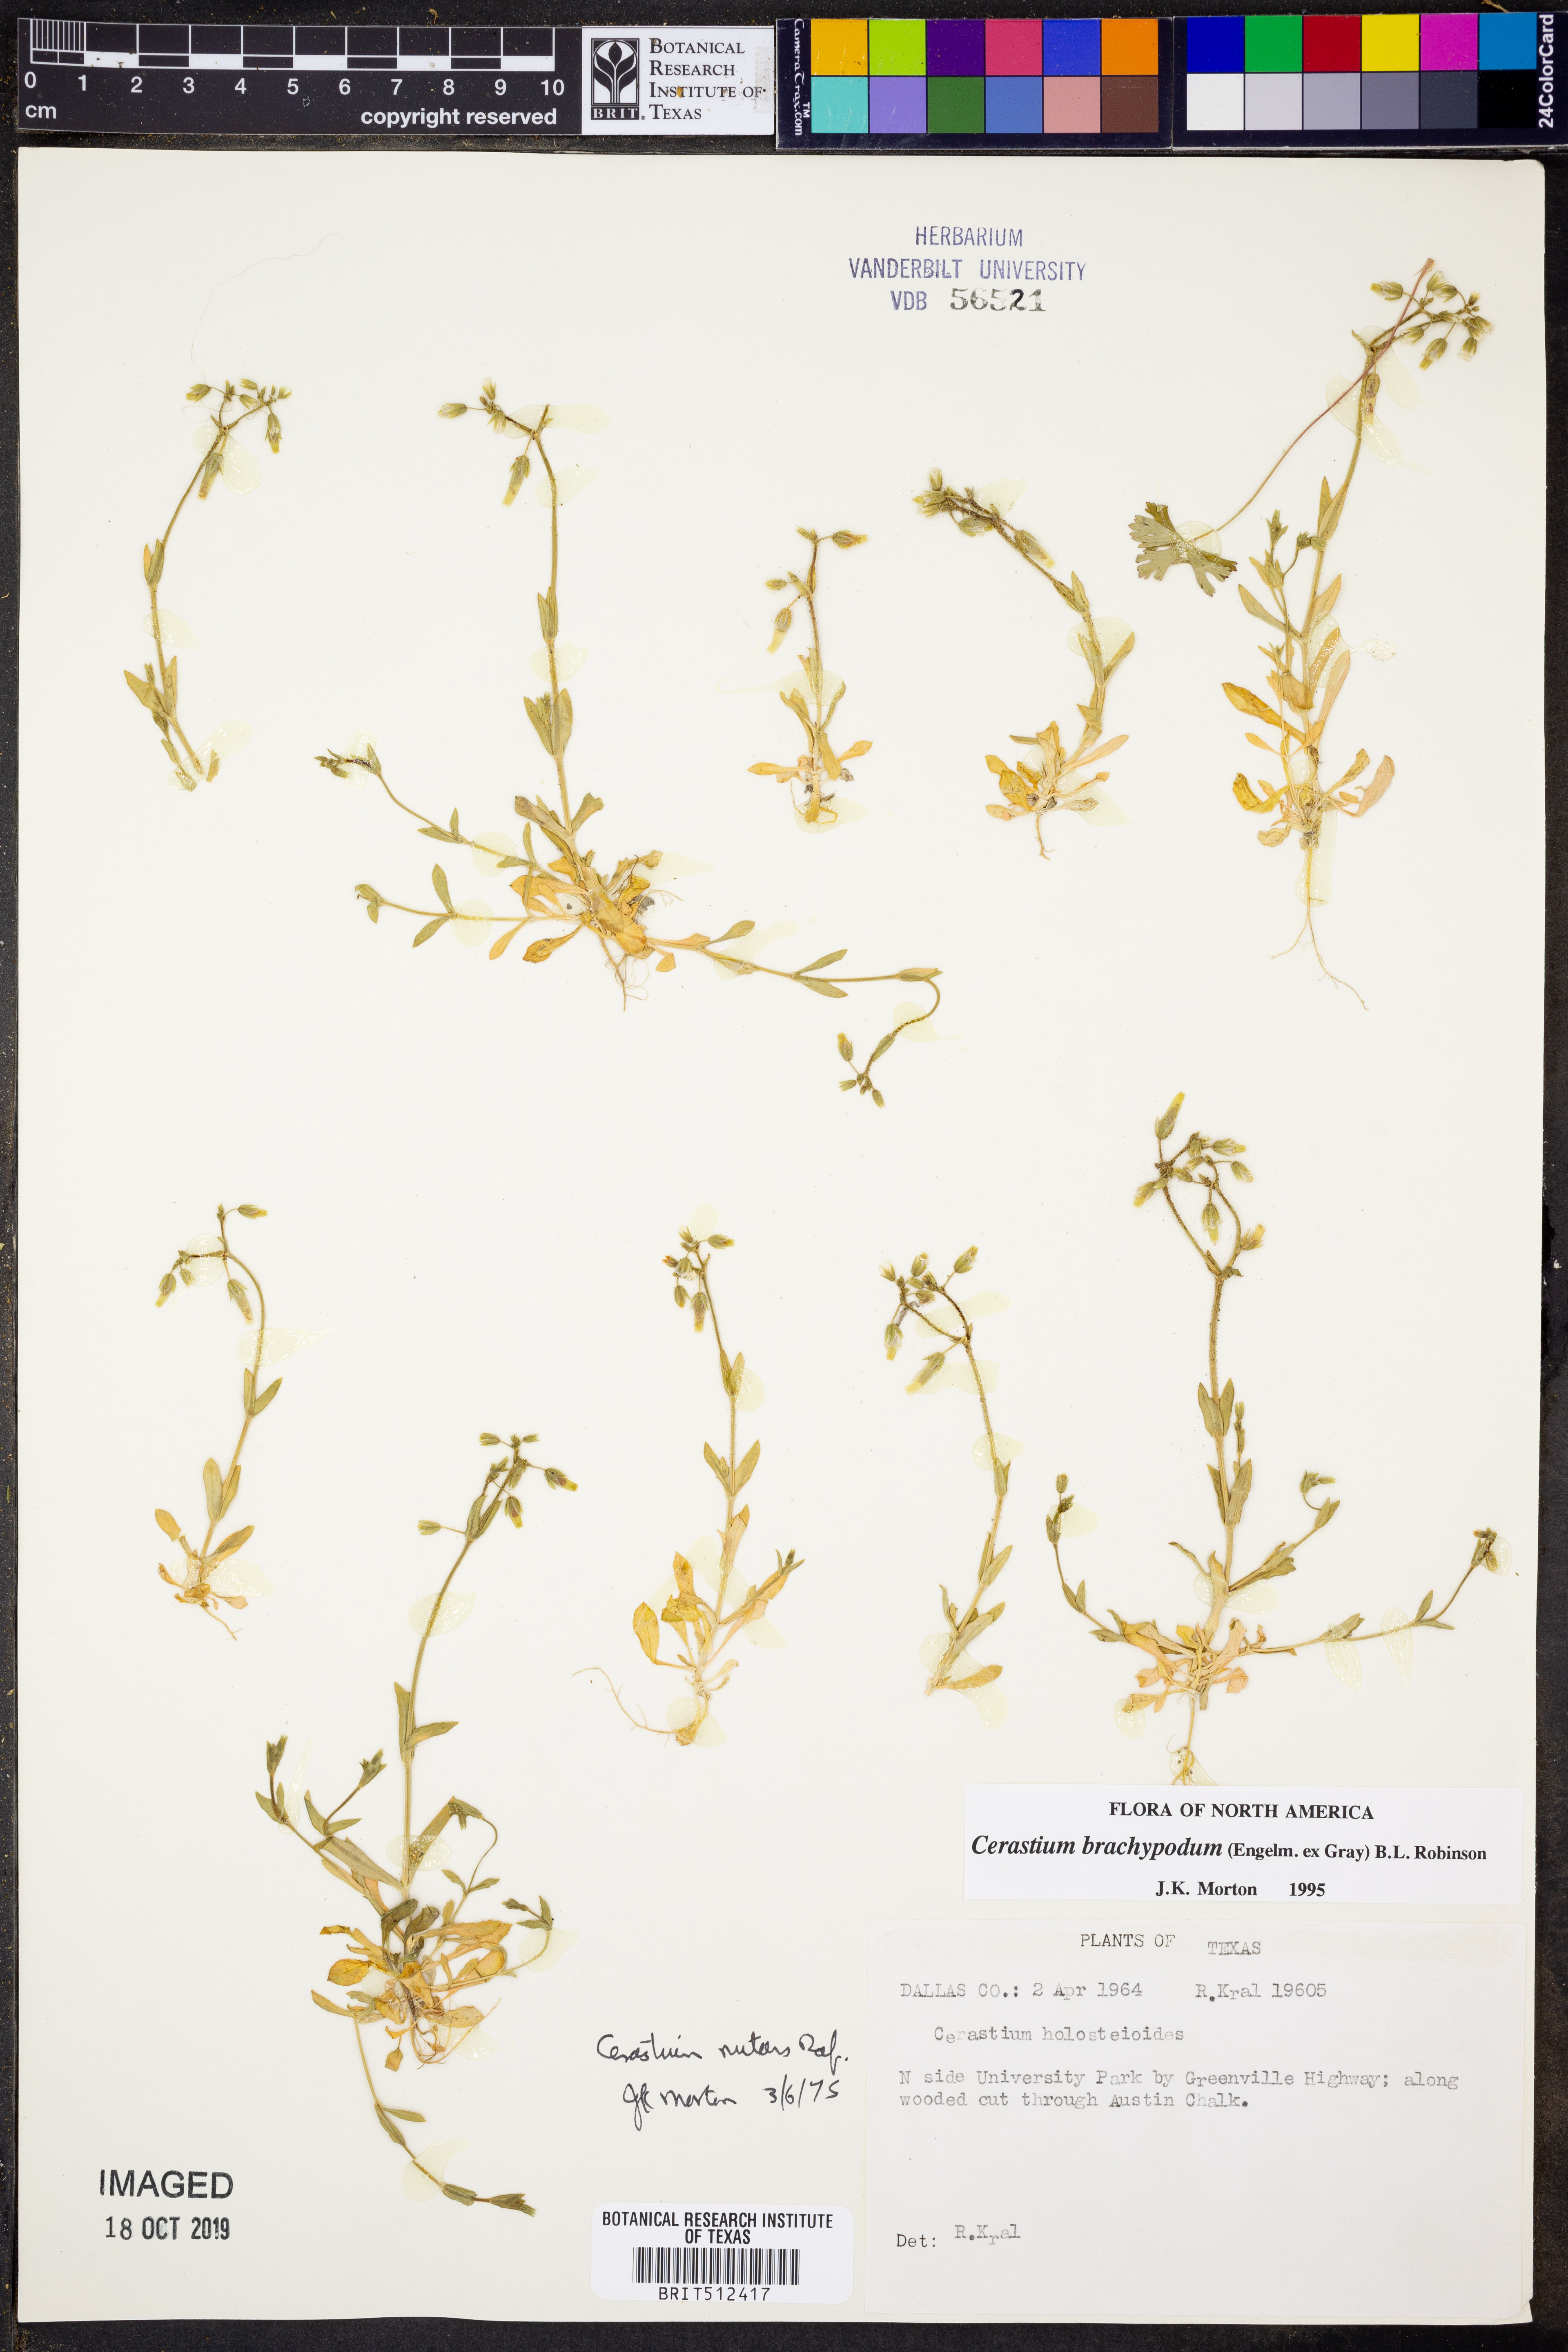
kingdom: Plantae
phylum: Tracheophyta
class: Magnoliopsida
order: Caryophyllales
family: Caryophyllaceae
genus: Cerastium
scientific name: Cerastium brachypodum
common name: Short-pedicelled nodding chickweed
